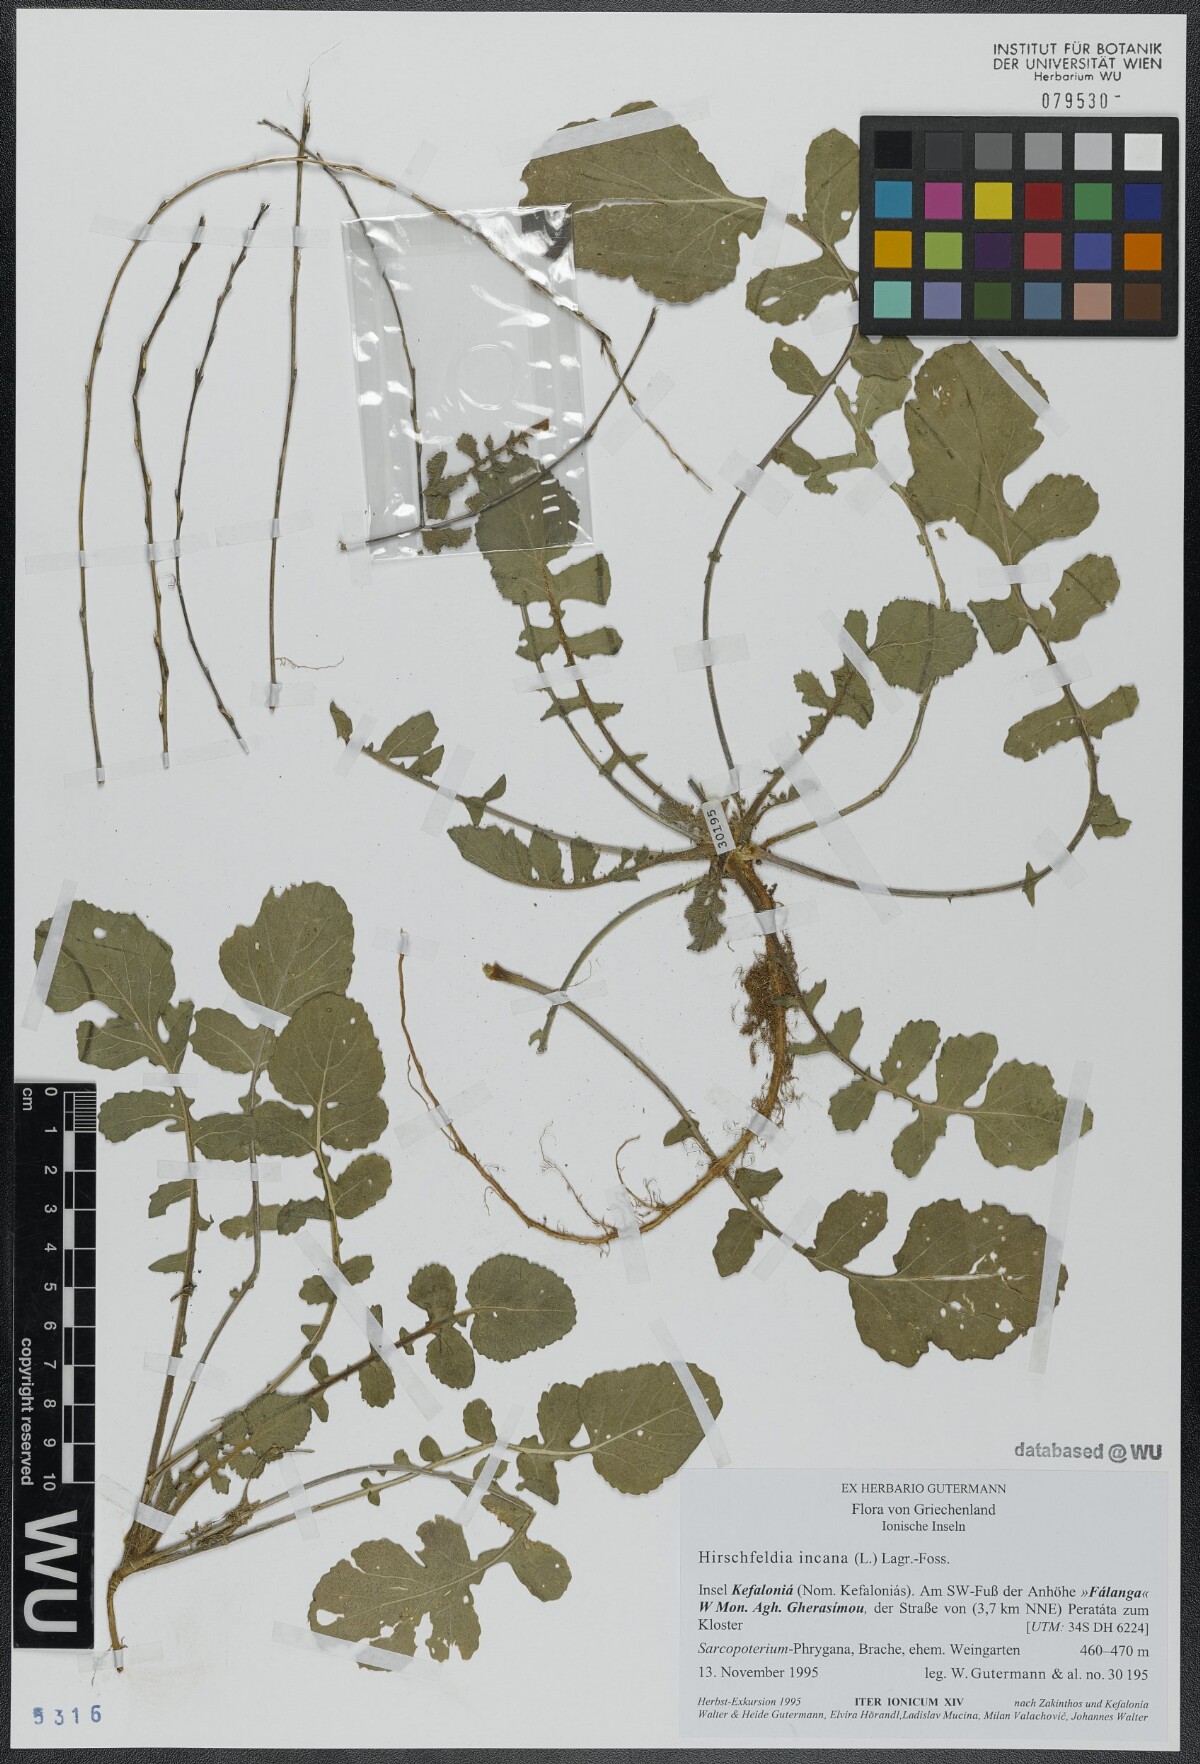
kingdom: Plantae
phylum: Tracheophyta
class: Magnoliopsida
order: Brassicales
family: Brassicaceae
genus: Hirschfeldia
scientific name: Hirschfeldia incana
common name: Hoary mustard
